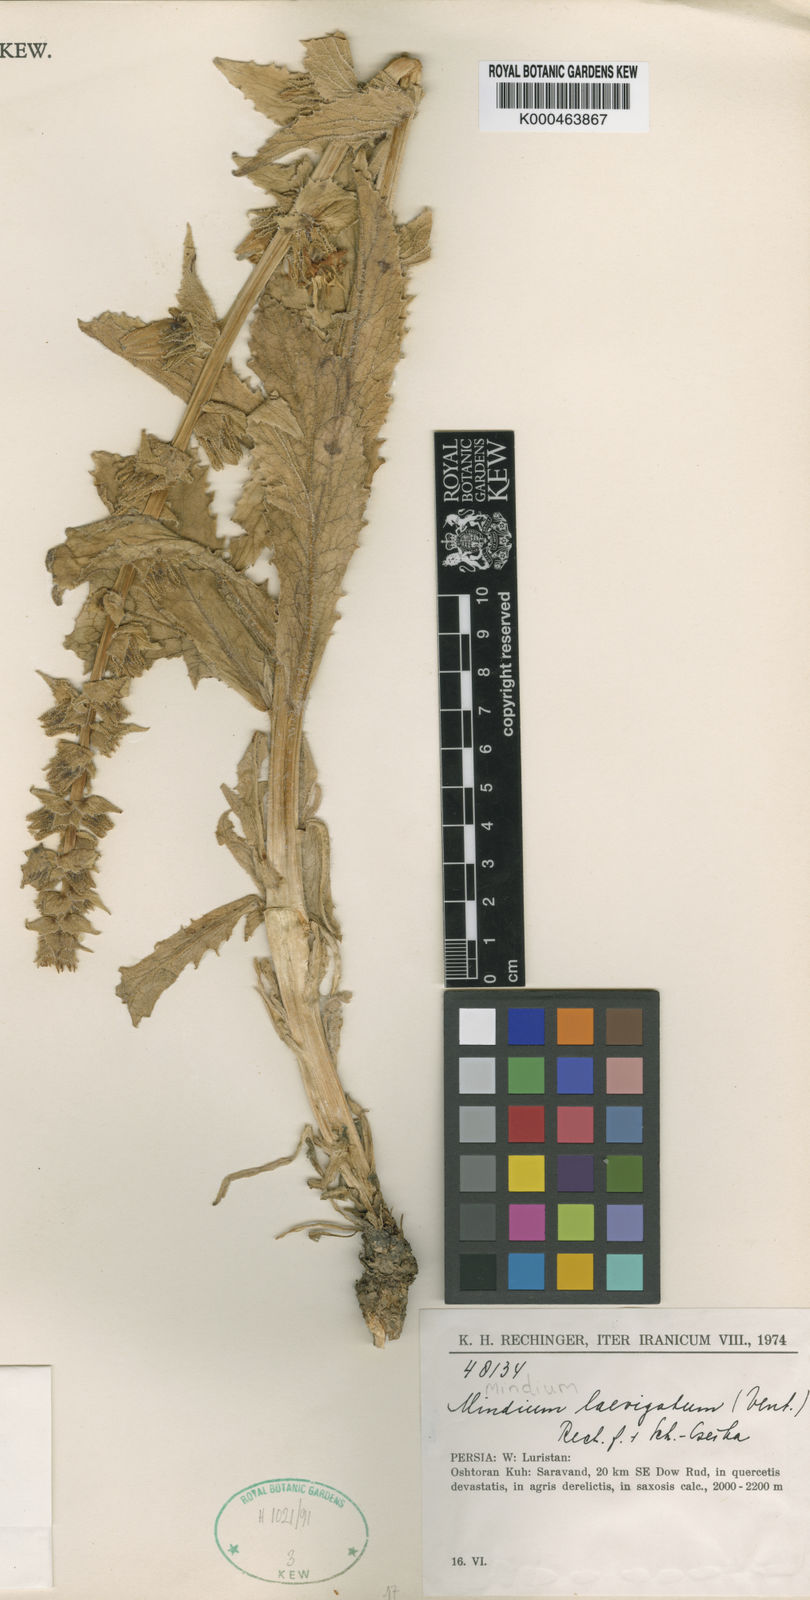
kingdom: Plantae
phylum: Tracheophyta
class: Magnoliopsida
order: Asterales
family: Campanulaceae
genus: Michauxia
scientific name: Michauxia laevigata
